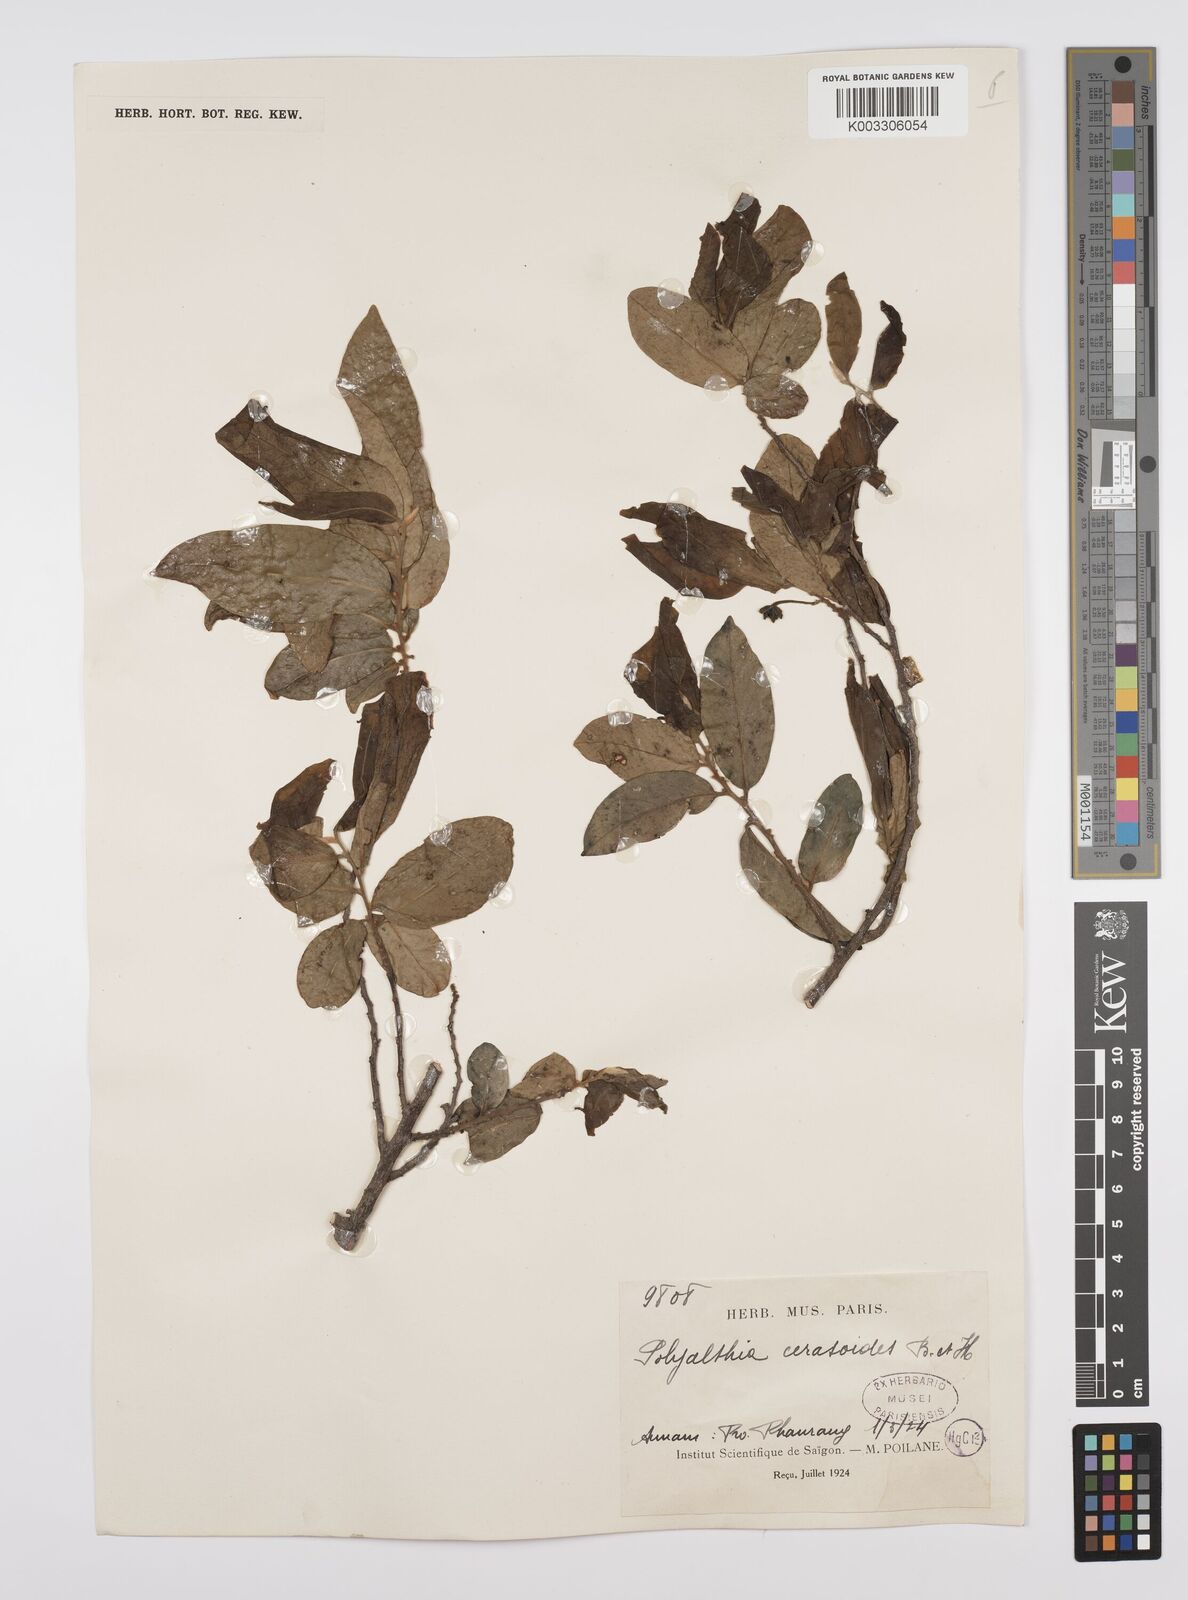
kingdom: Plantae
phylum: Tracheophyta
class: Magnoliopsida
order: Magnoliales
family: Annonaceae
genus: Hubera
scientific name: Hubera cerasoides
